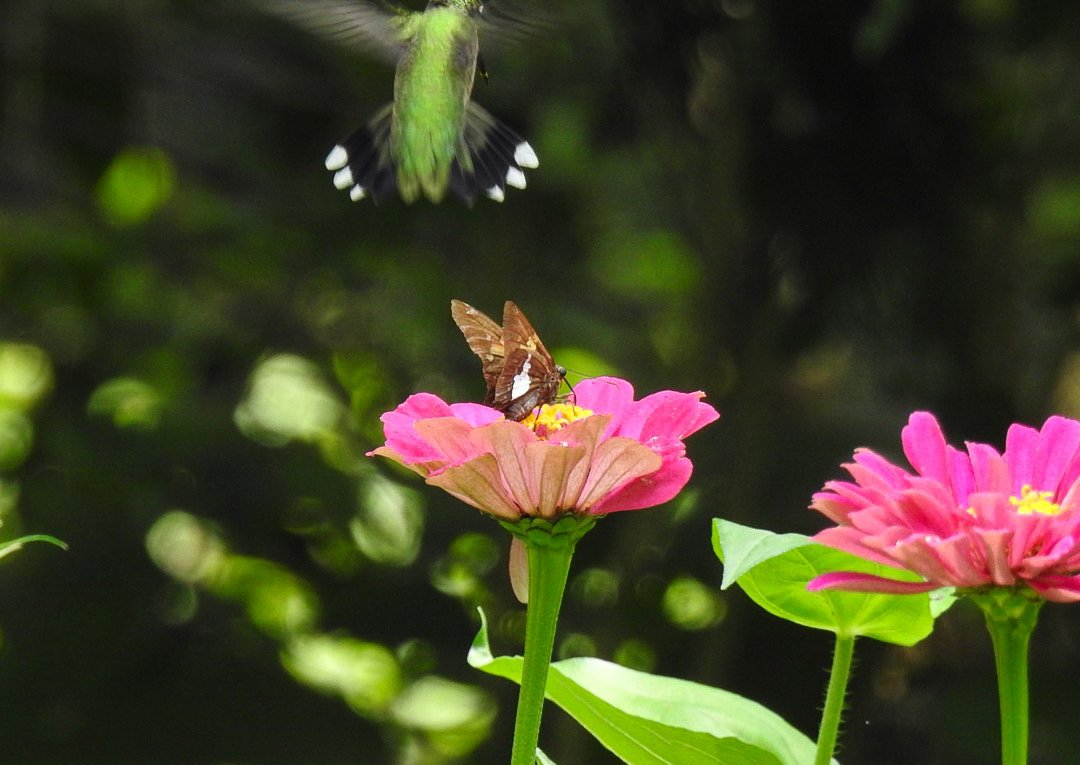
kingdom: Animalia
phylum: Arthropoda
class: Insecta
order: Lepidoptera
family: Hesperiidae
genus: Epargyreus
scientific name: Epargyreus clarus
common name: Silver-spotted Skipper
